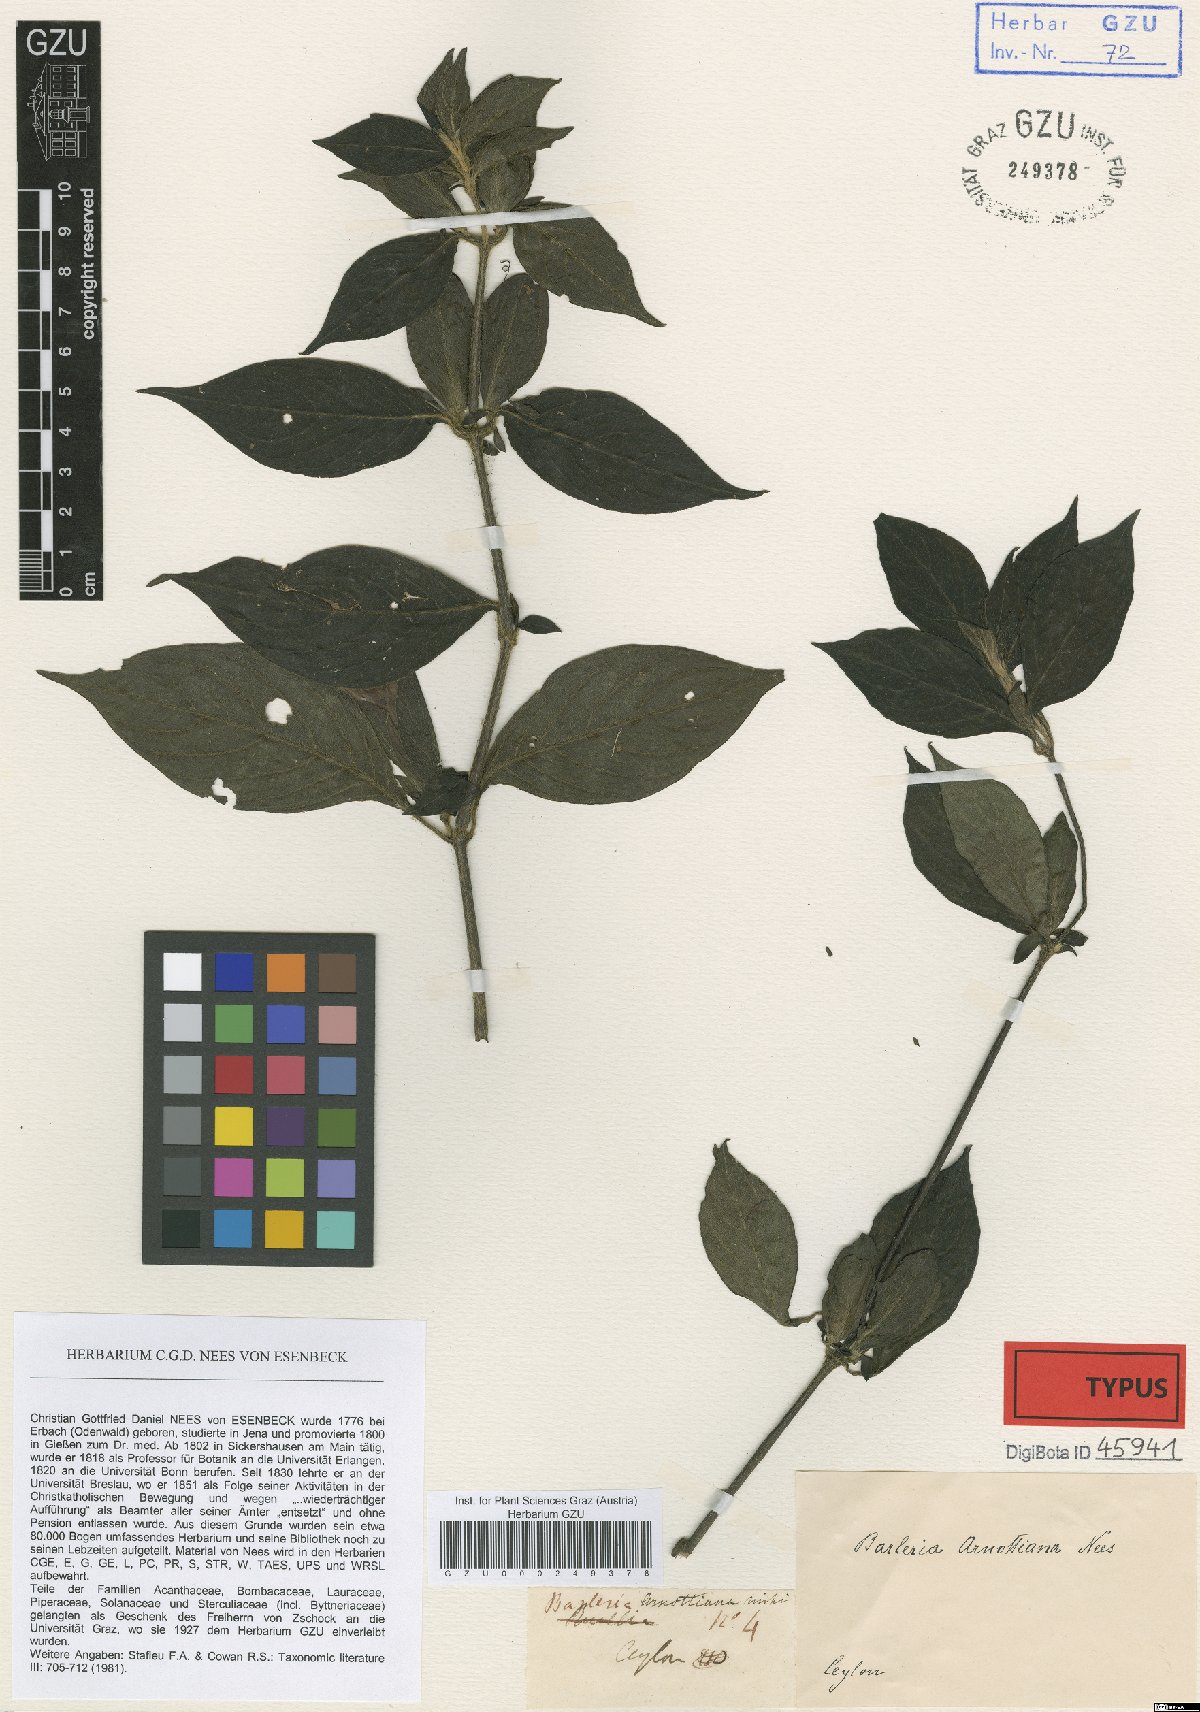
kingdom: Plantae
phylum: Tracheophyta
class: Magnoliopsida
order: Lamiales
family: Acanthaceae
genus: Barleria
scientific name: Barleria arnottiana
